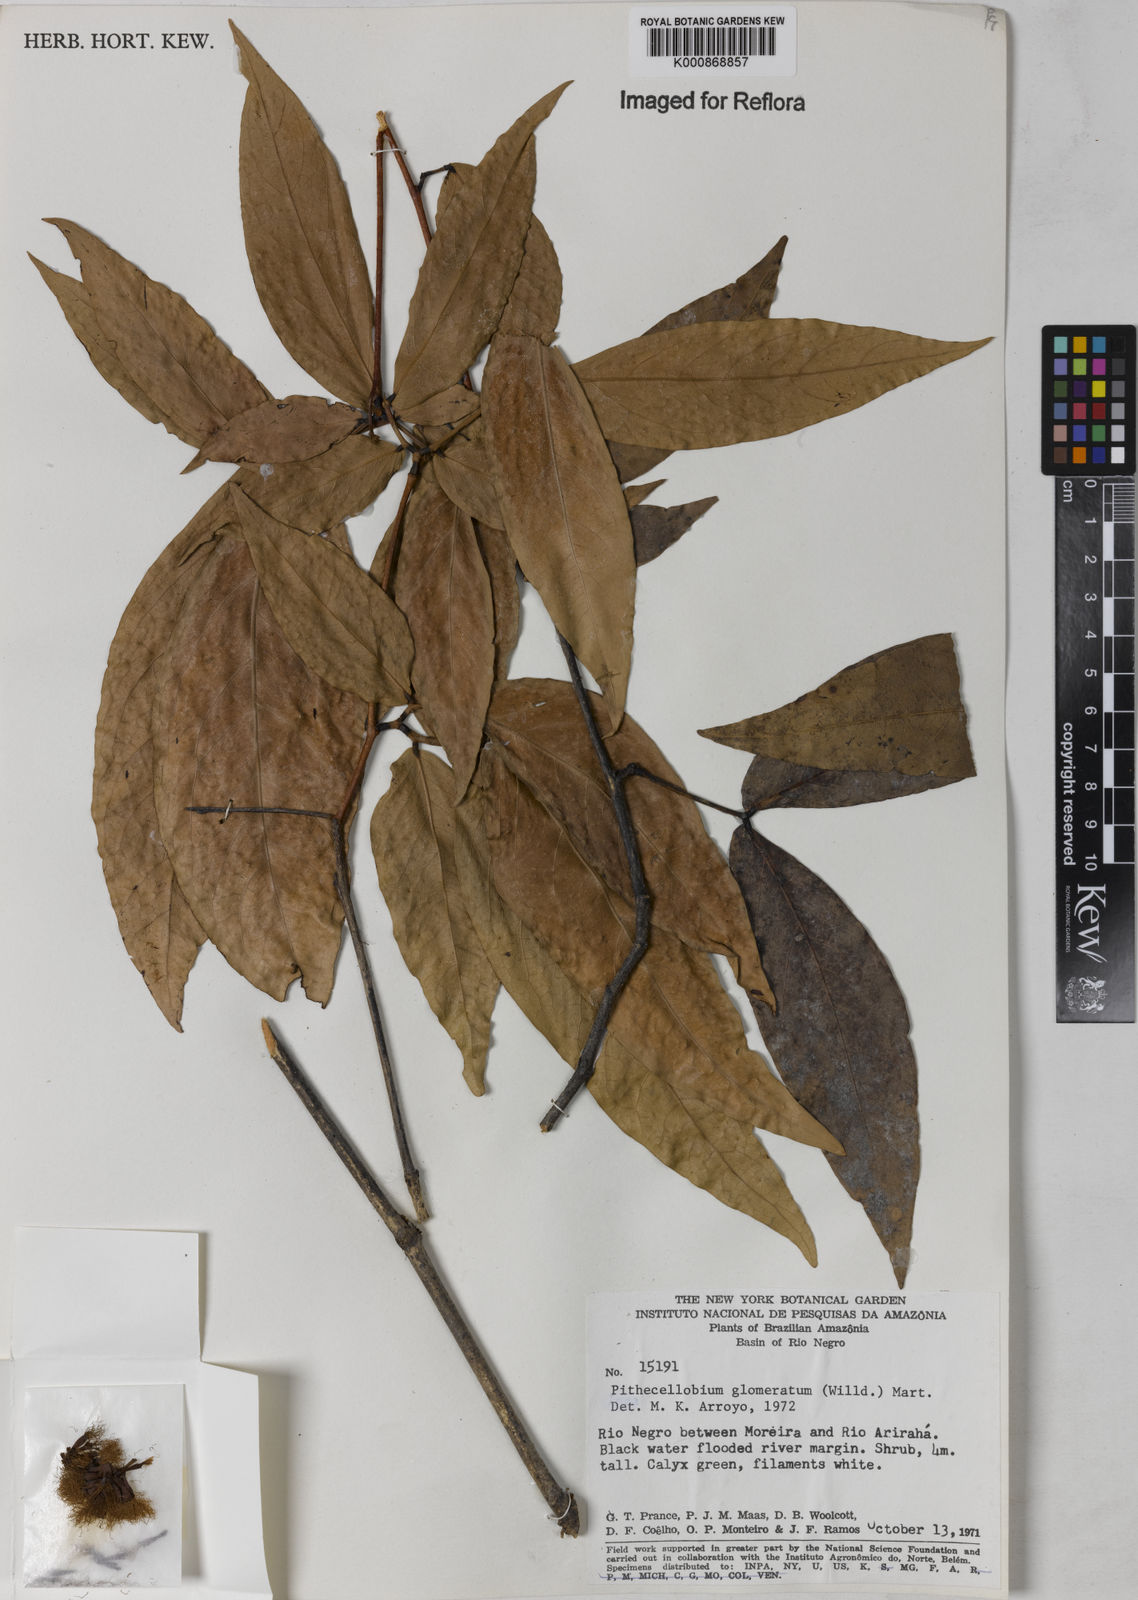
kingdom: Plantae
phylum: Tracheophyta
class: Magnoliopsida
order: Fabales
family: Fabaceae
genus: Zygia
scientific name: Zygia cataractae
